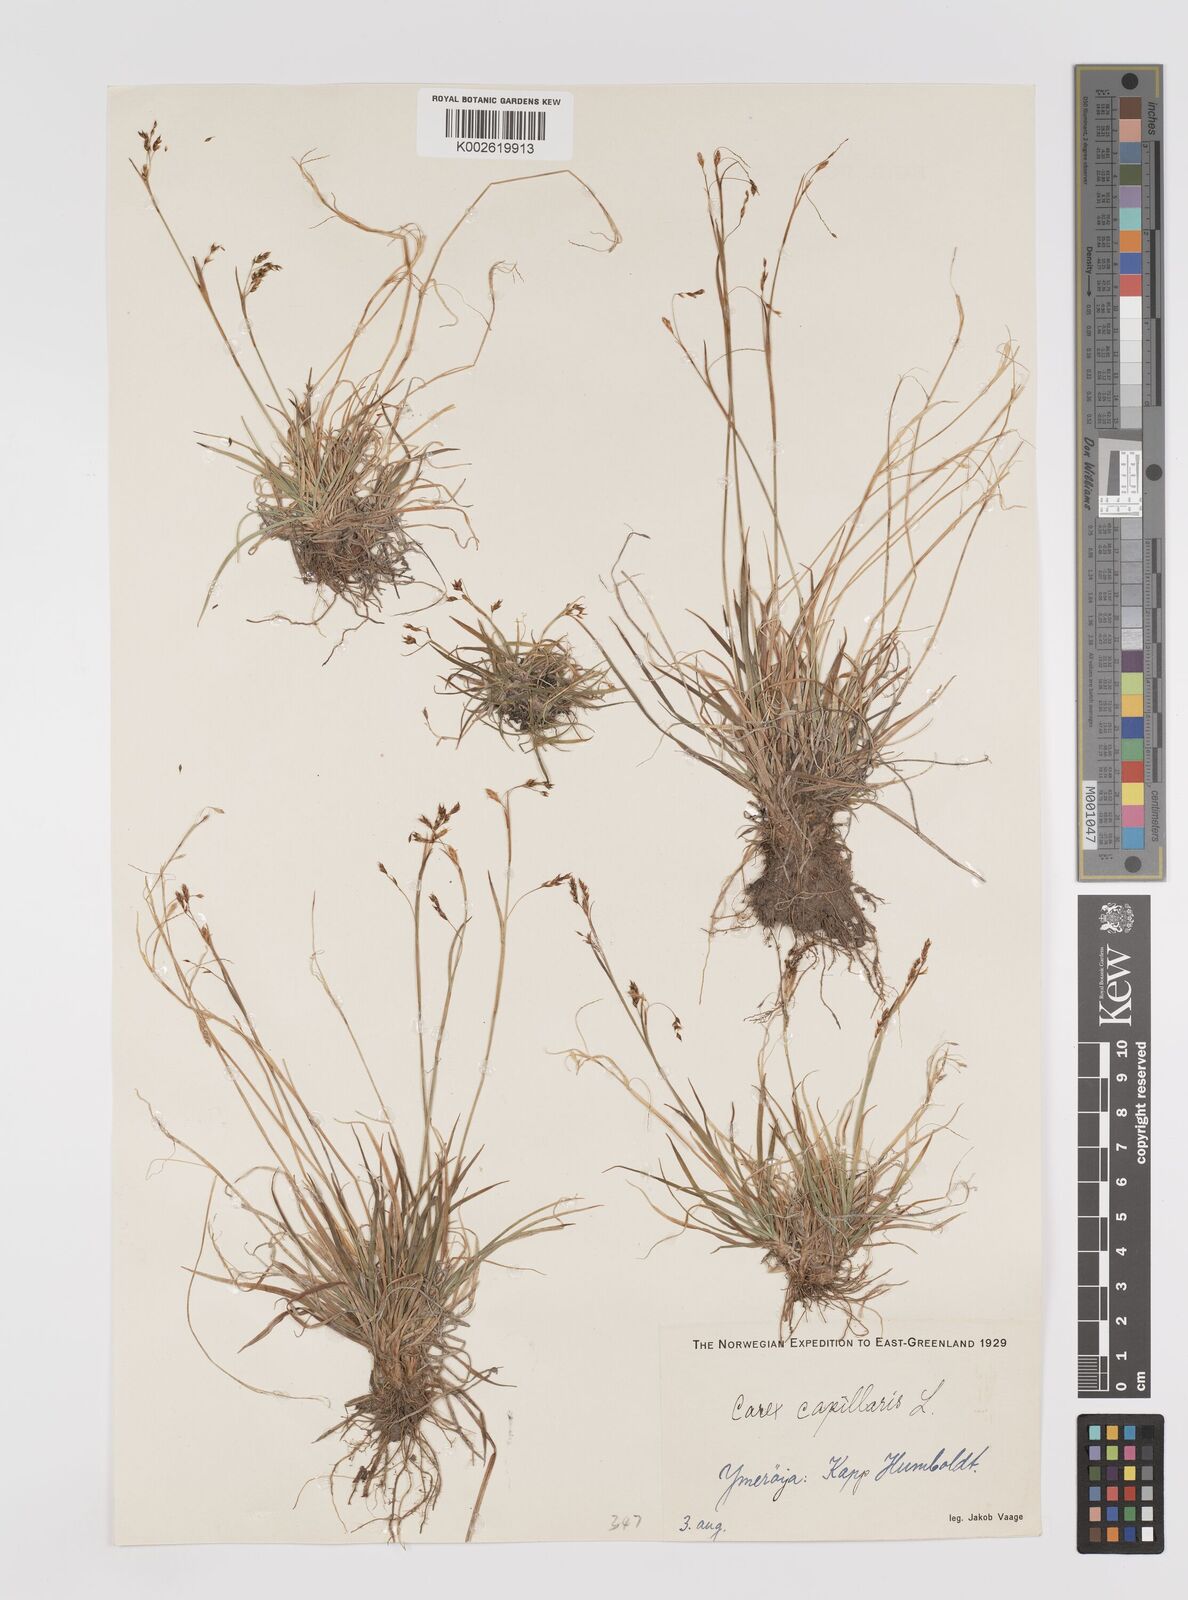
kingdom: Plantae
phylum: Tracheophyta
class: Liliopsida
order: Poales
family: Cyperaceae
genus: Carex
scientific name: Carex capillaris
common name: Hair sedge
